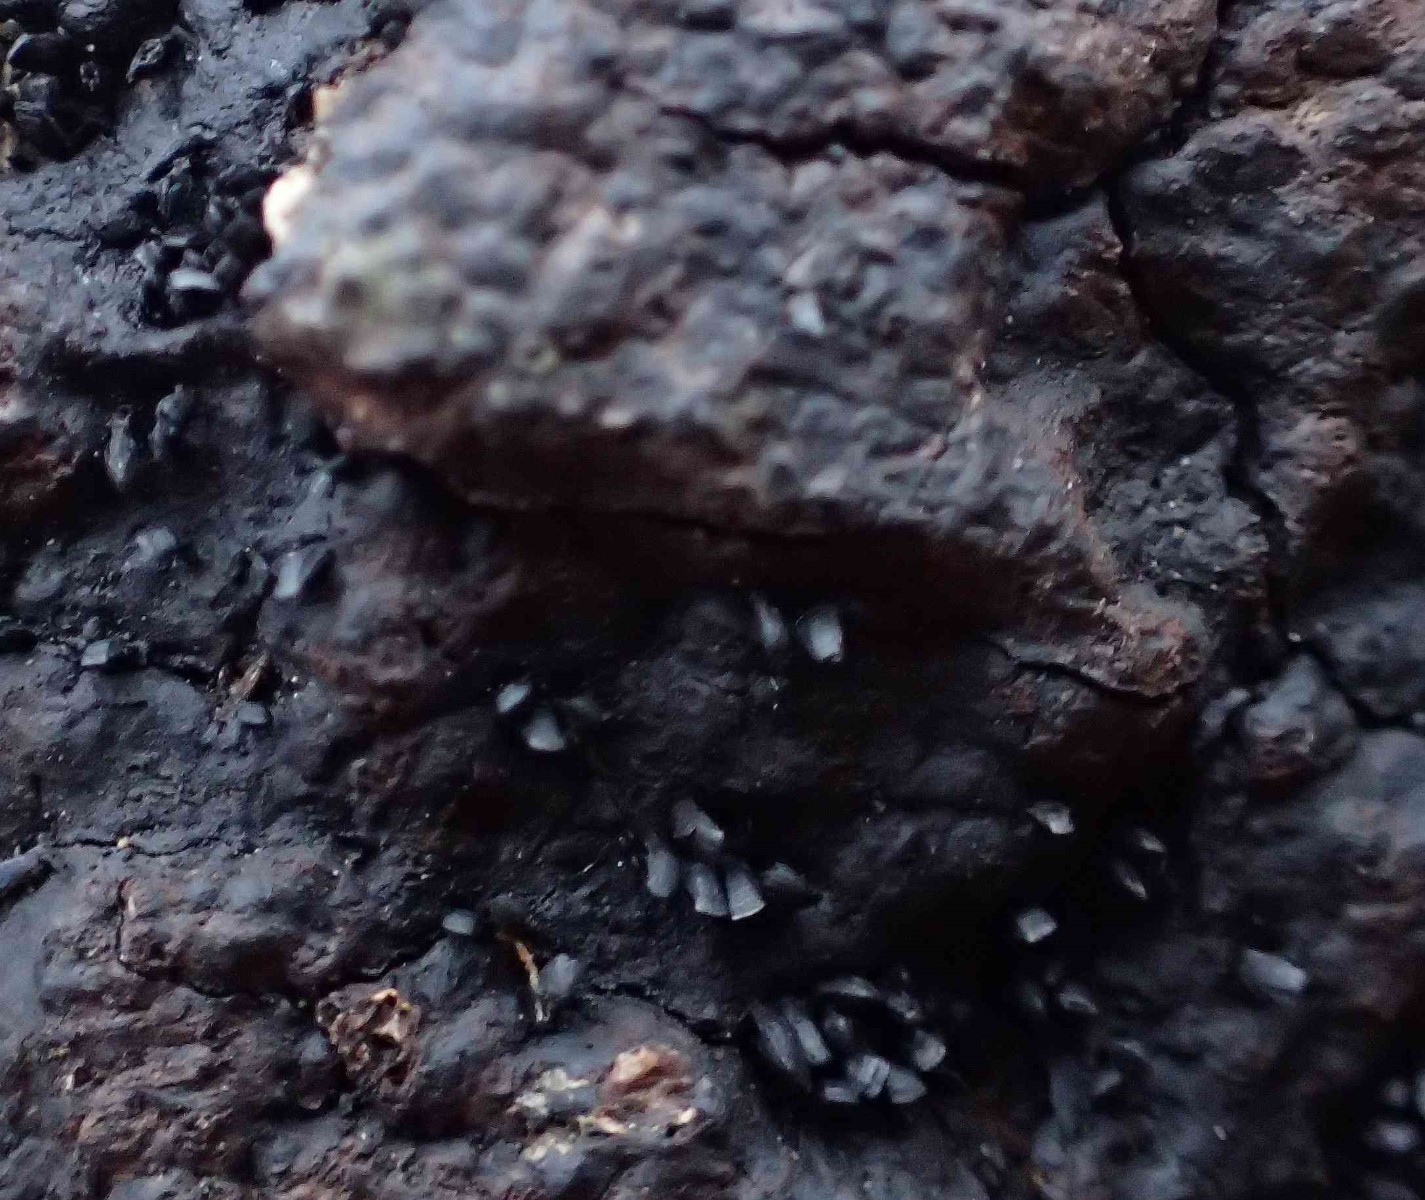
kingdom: Fungi
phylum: Ascomycota
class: Eurotiomycetes
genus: Glyphium
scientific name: Glyphium elatum
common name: kuløkse
